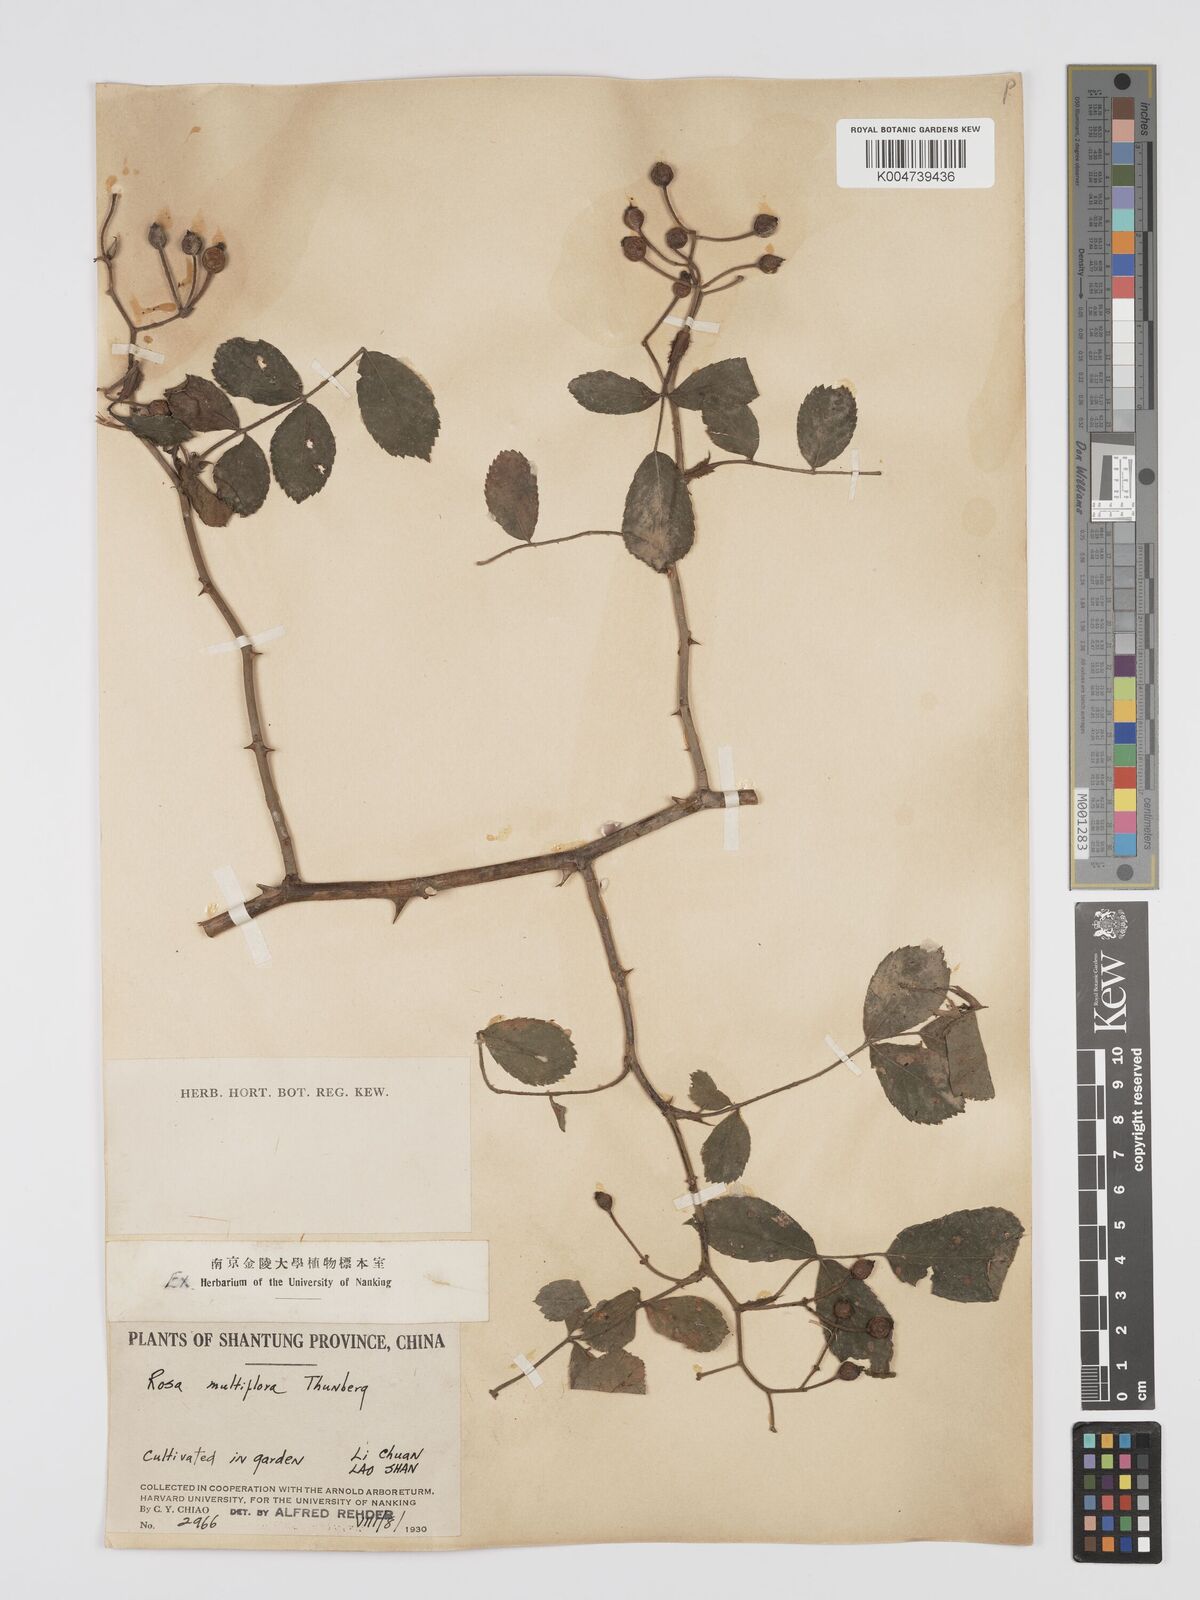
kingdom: Plantae
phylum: Tracheophyta
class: Magnoliopsida
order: Rosales
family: Rosaceae
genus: Rosa
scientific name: Rosa
